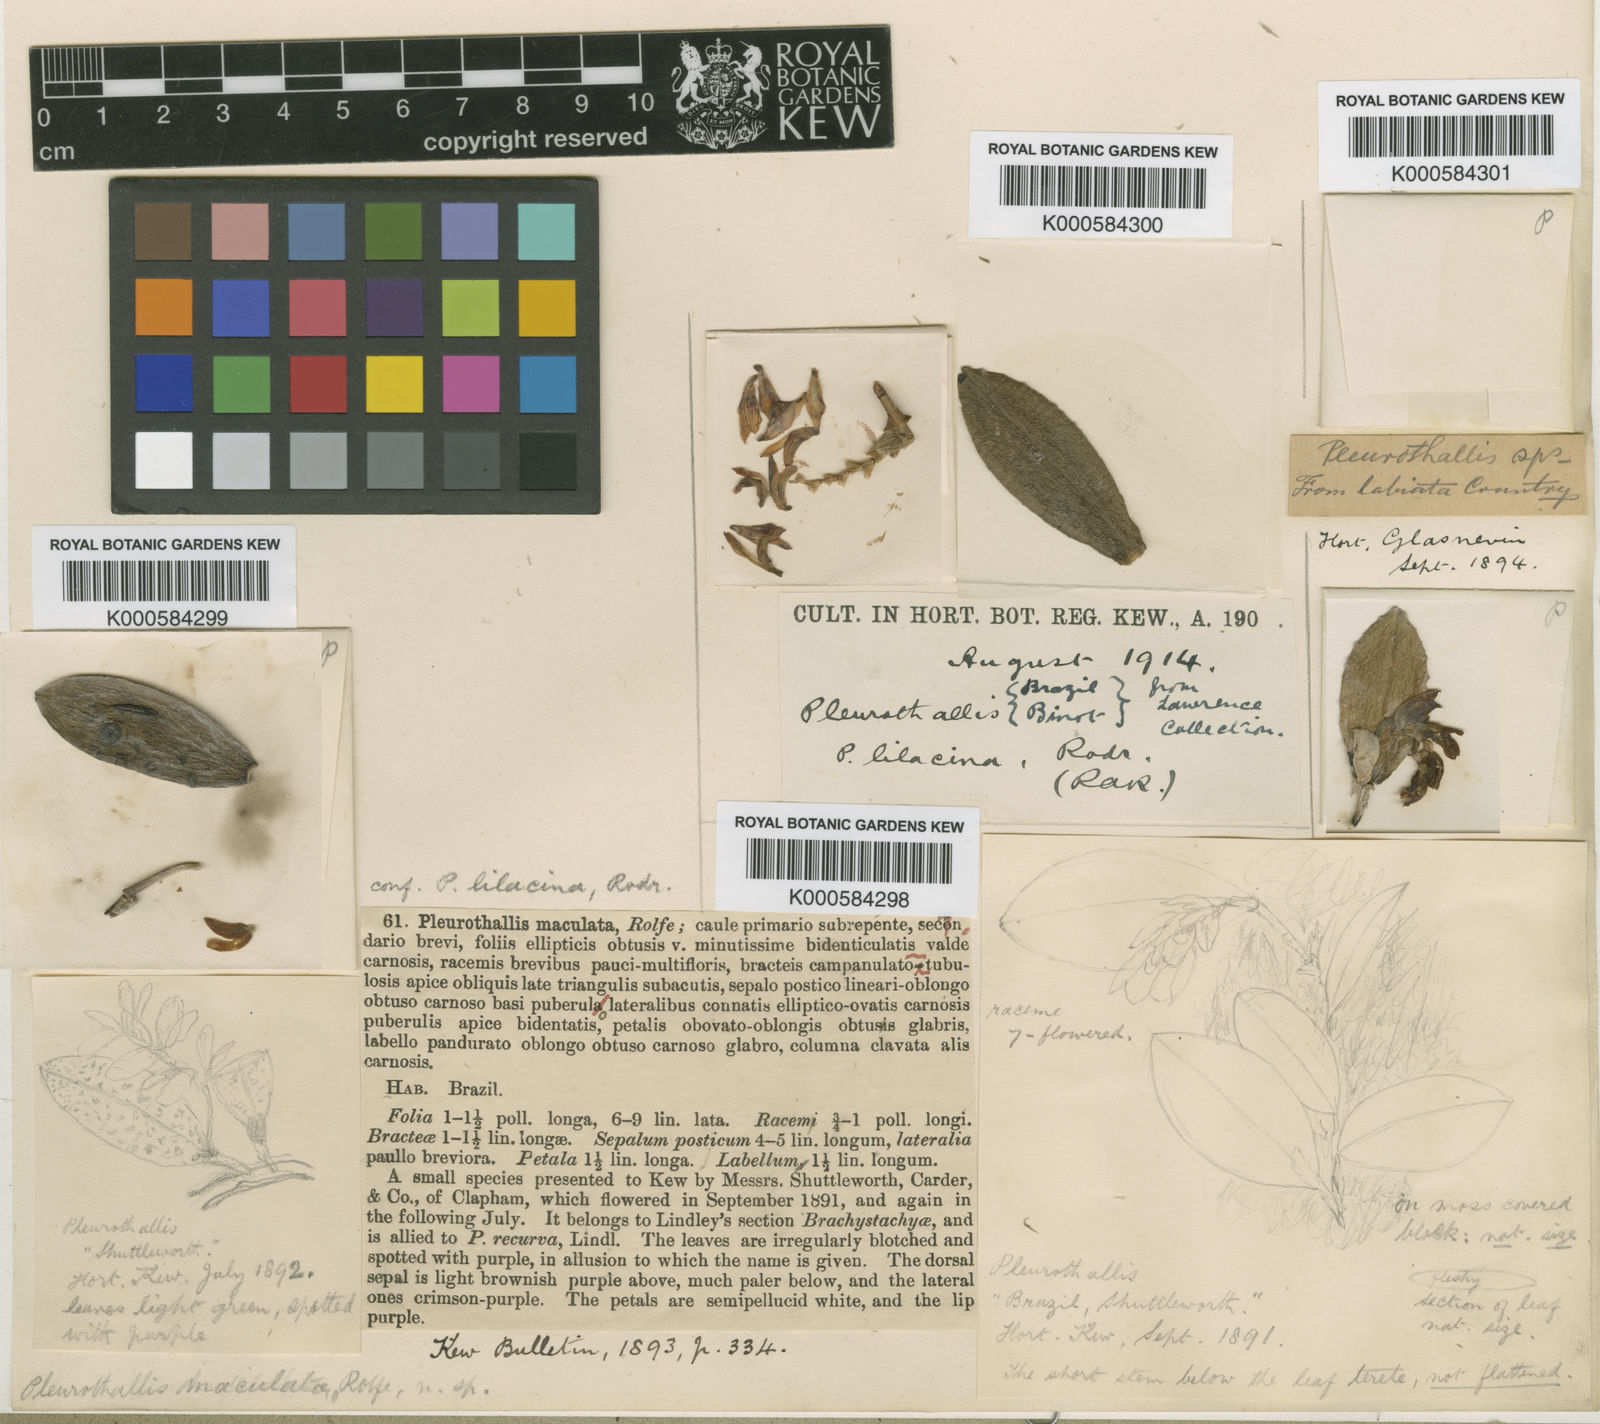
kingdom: Plantae
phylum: Tracheophyta
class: Liliopsida
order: Asparagales
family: Orchidaceae
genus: Acianthera
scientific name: Acianthera recurva
